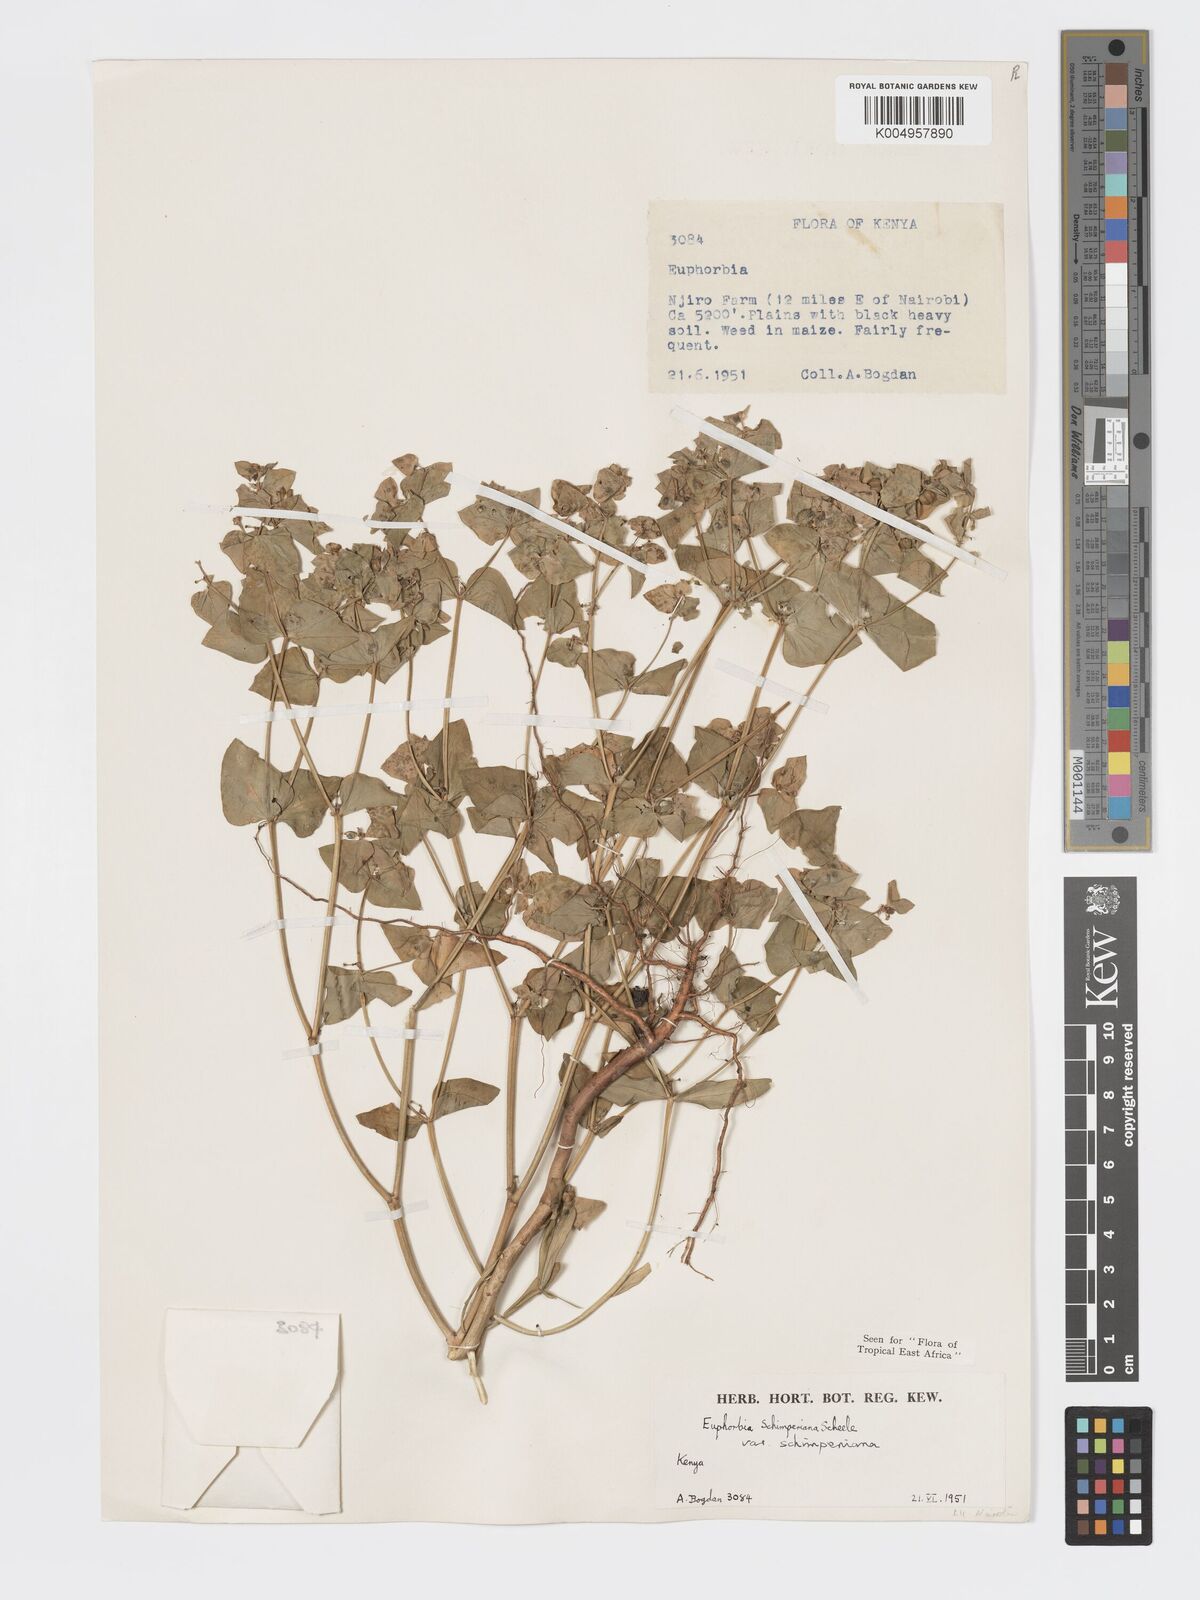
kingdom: Plantae
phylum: Tracheophyta
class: Magnoliopsida
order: Malpighiales
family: Euphorbiaceae
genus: Euphorbia
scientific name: Euphorbia schimperiana
